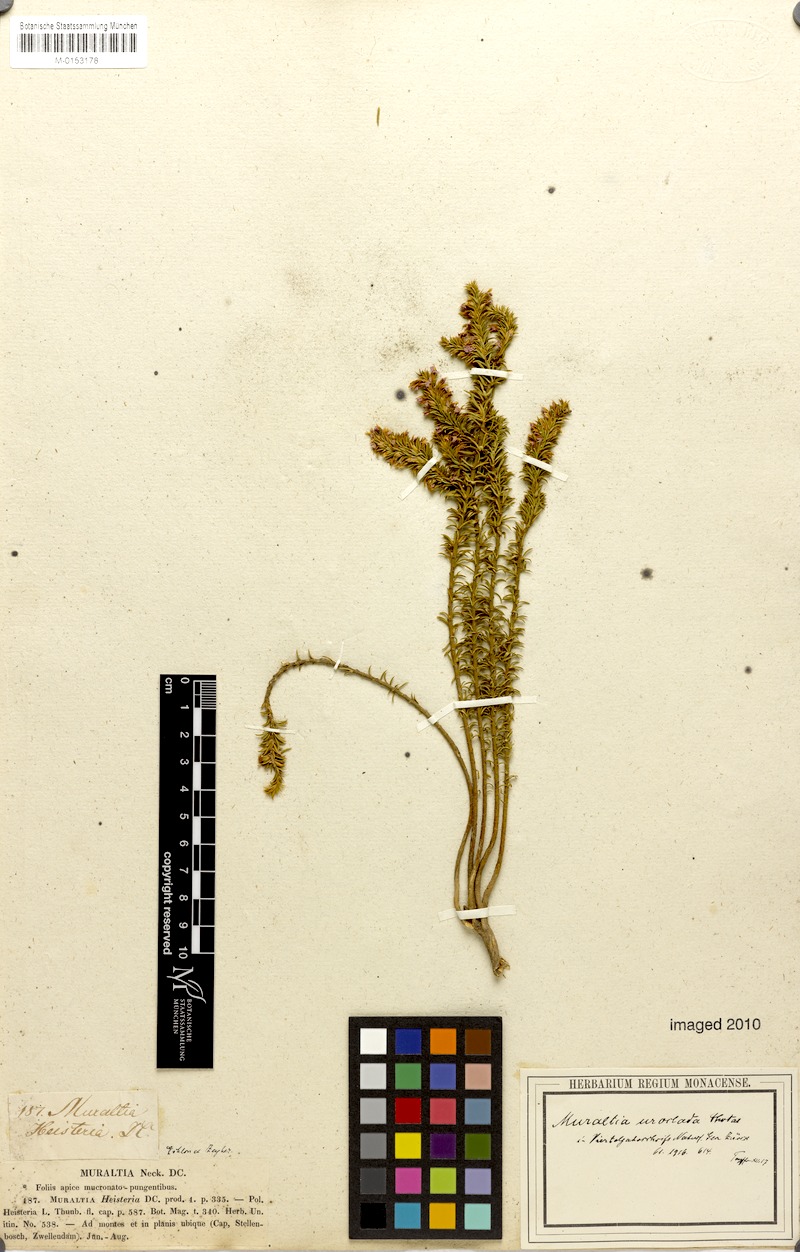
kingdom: Plantae
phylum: Tracheophyta
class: Magnoliopsida
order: Fabales
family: Polygalaceae
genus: Muraltia
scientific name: Muraltia uroclada
